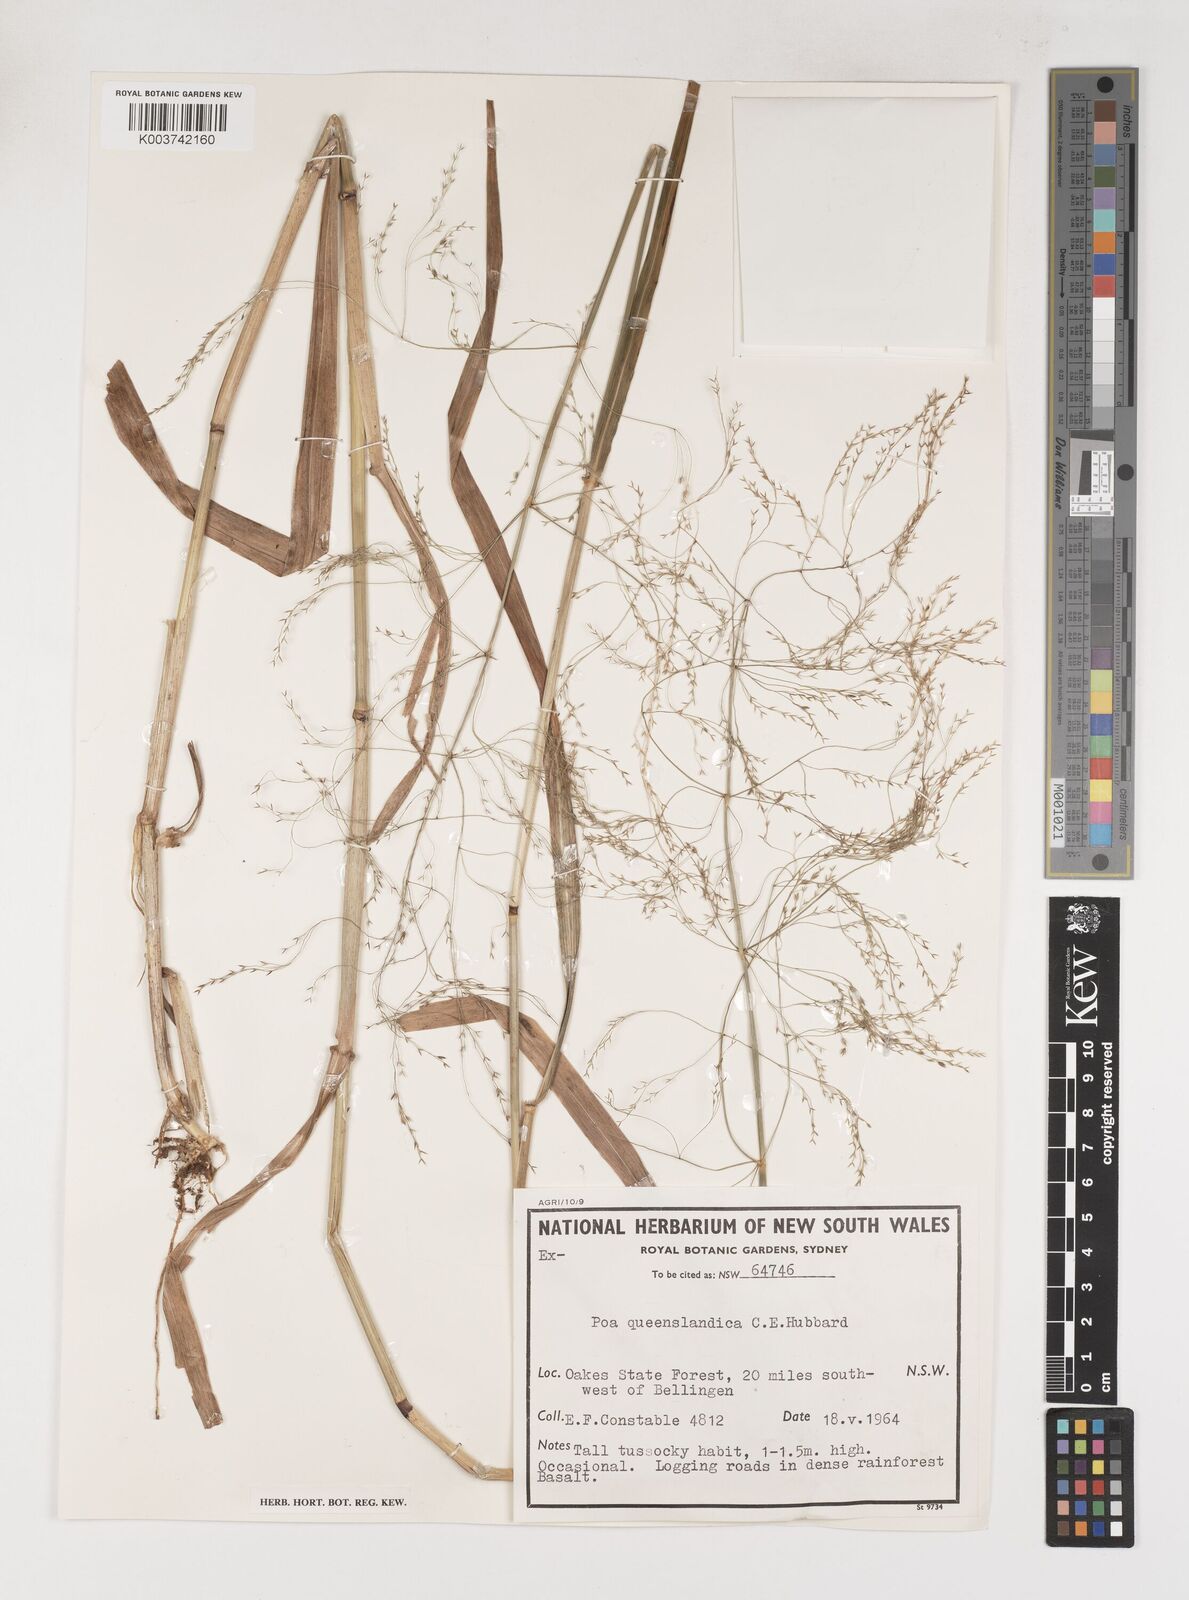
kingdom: Plantae
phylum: Tracheophyta
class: Liliopsida
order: Poales
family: Poaceae
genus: Sylvipoa
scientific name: Sylvipoa queenslandica
